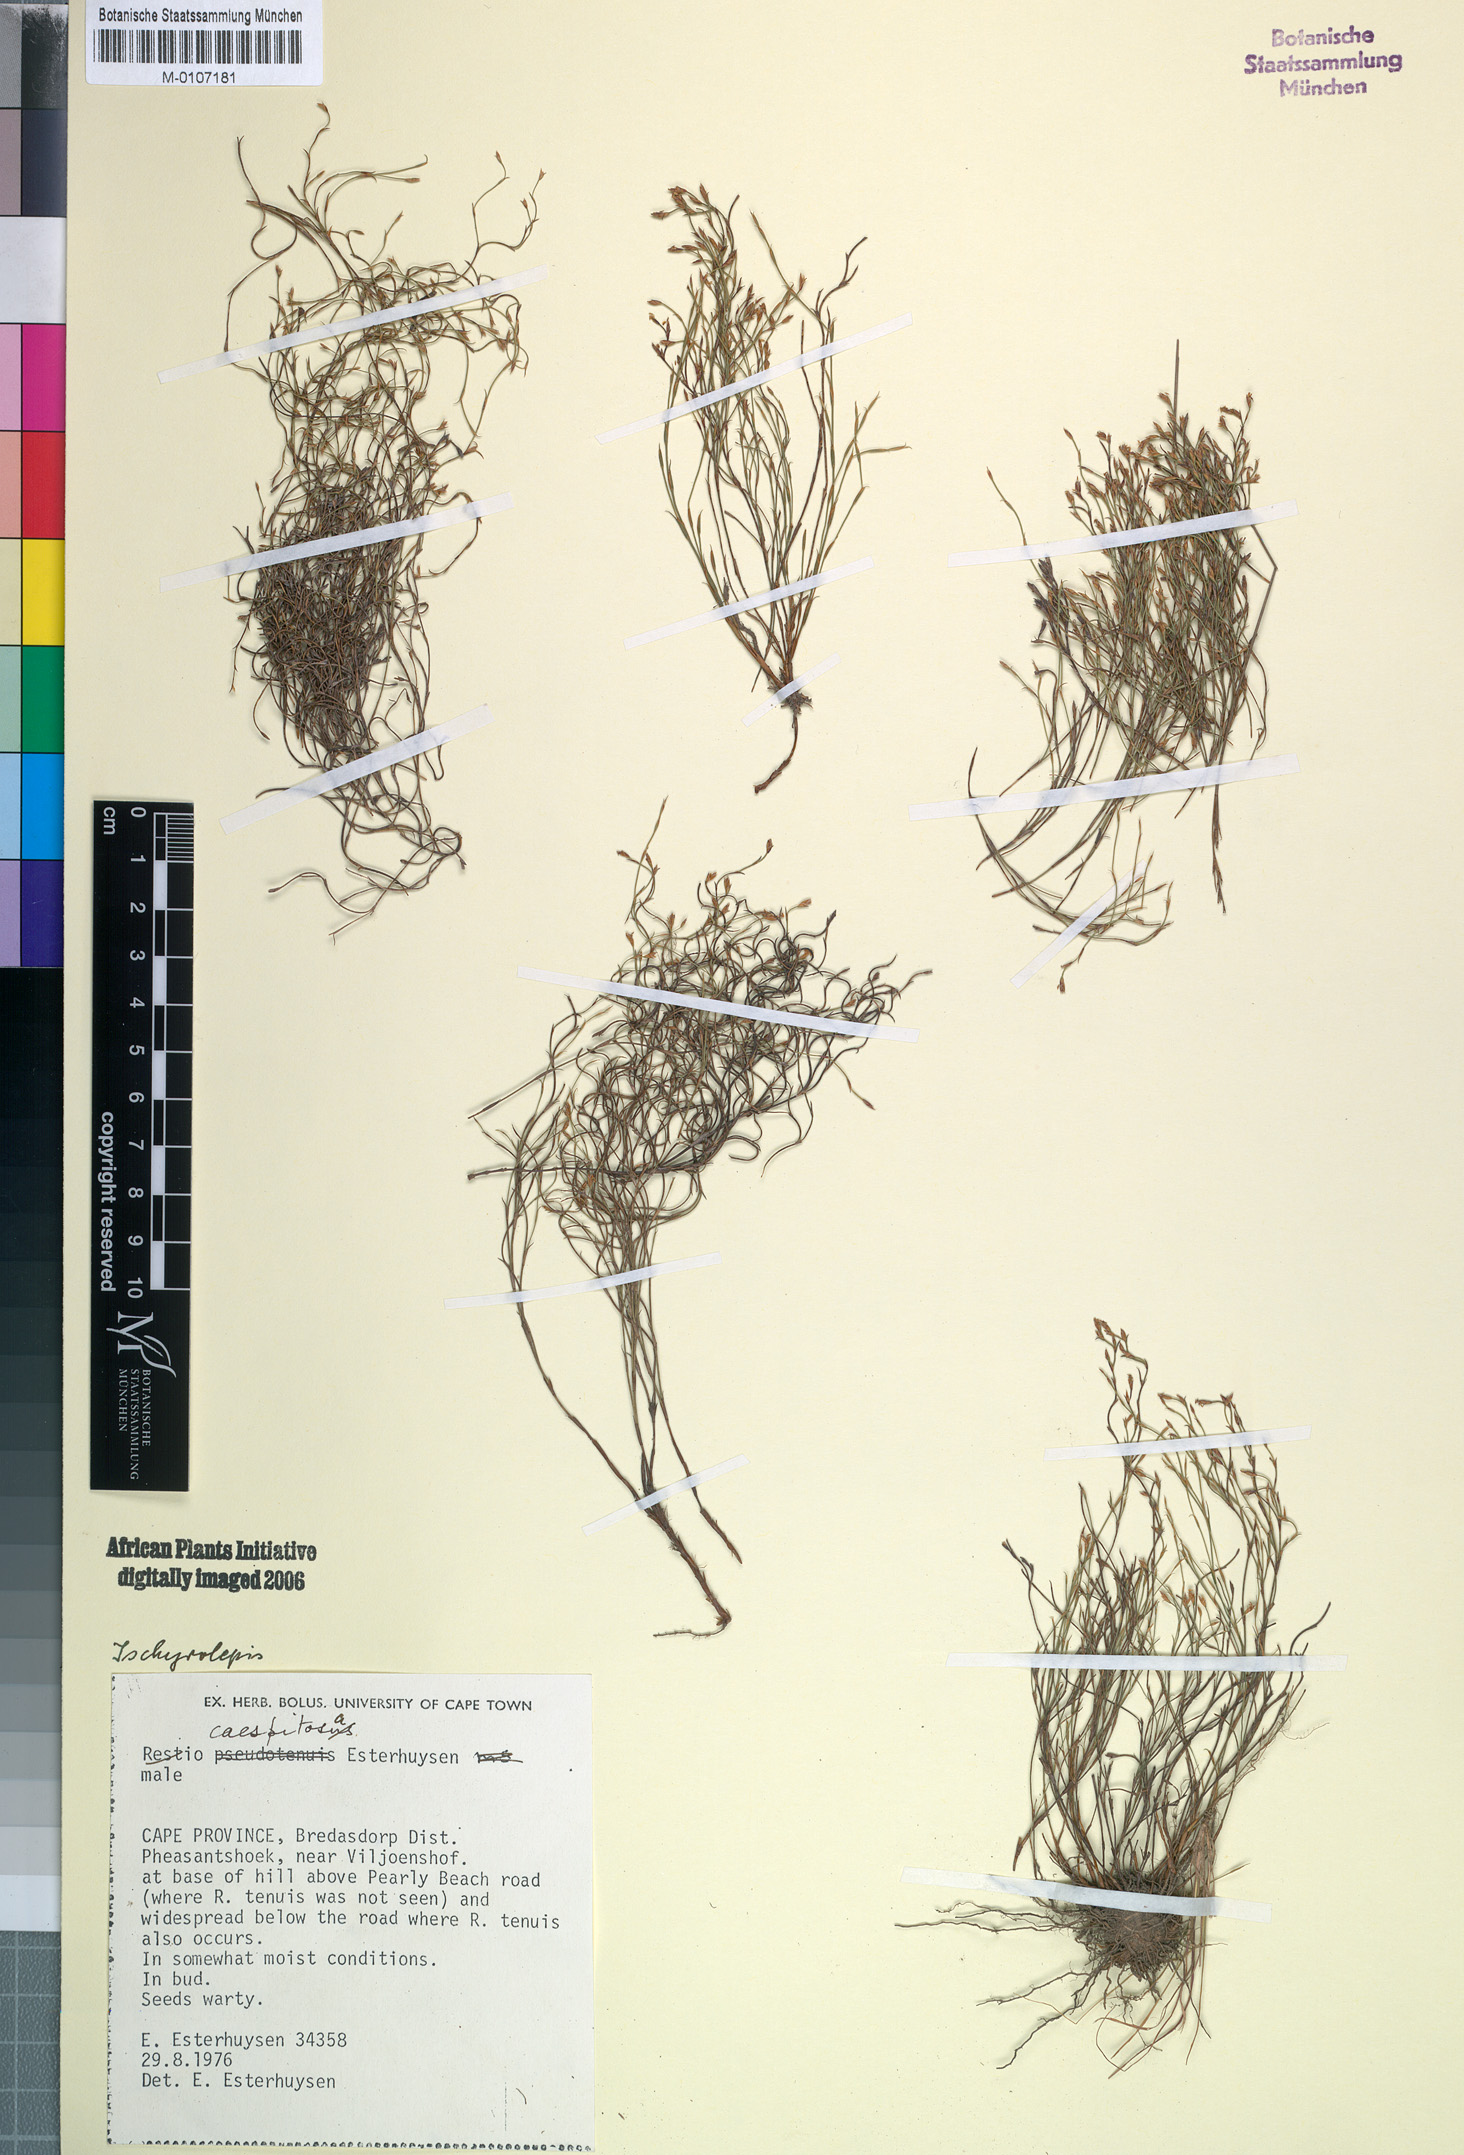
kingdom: Plantae
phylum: Tracheophyta
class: Liliopsida
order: Poales
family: Restionaceae
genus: Restio
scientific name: Restio caespitosus
